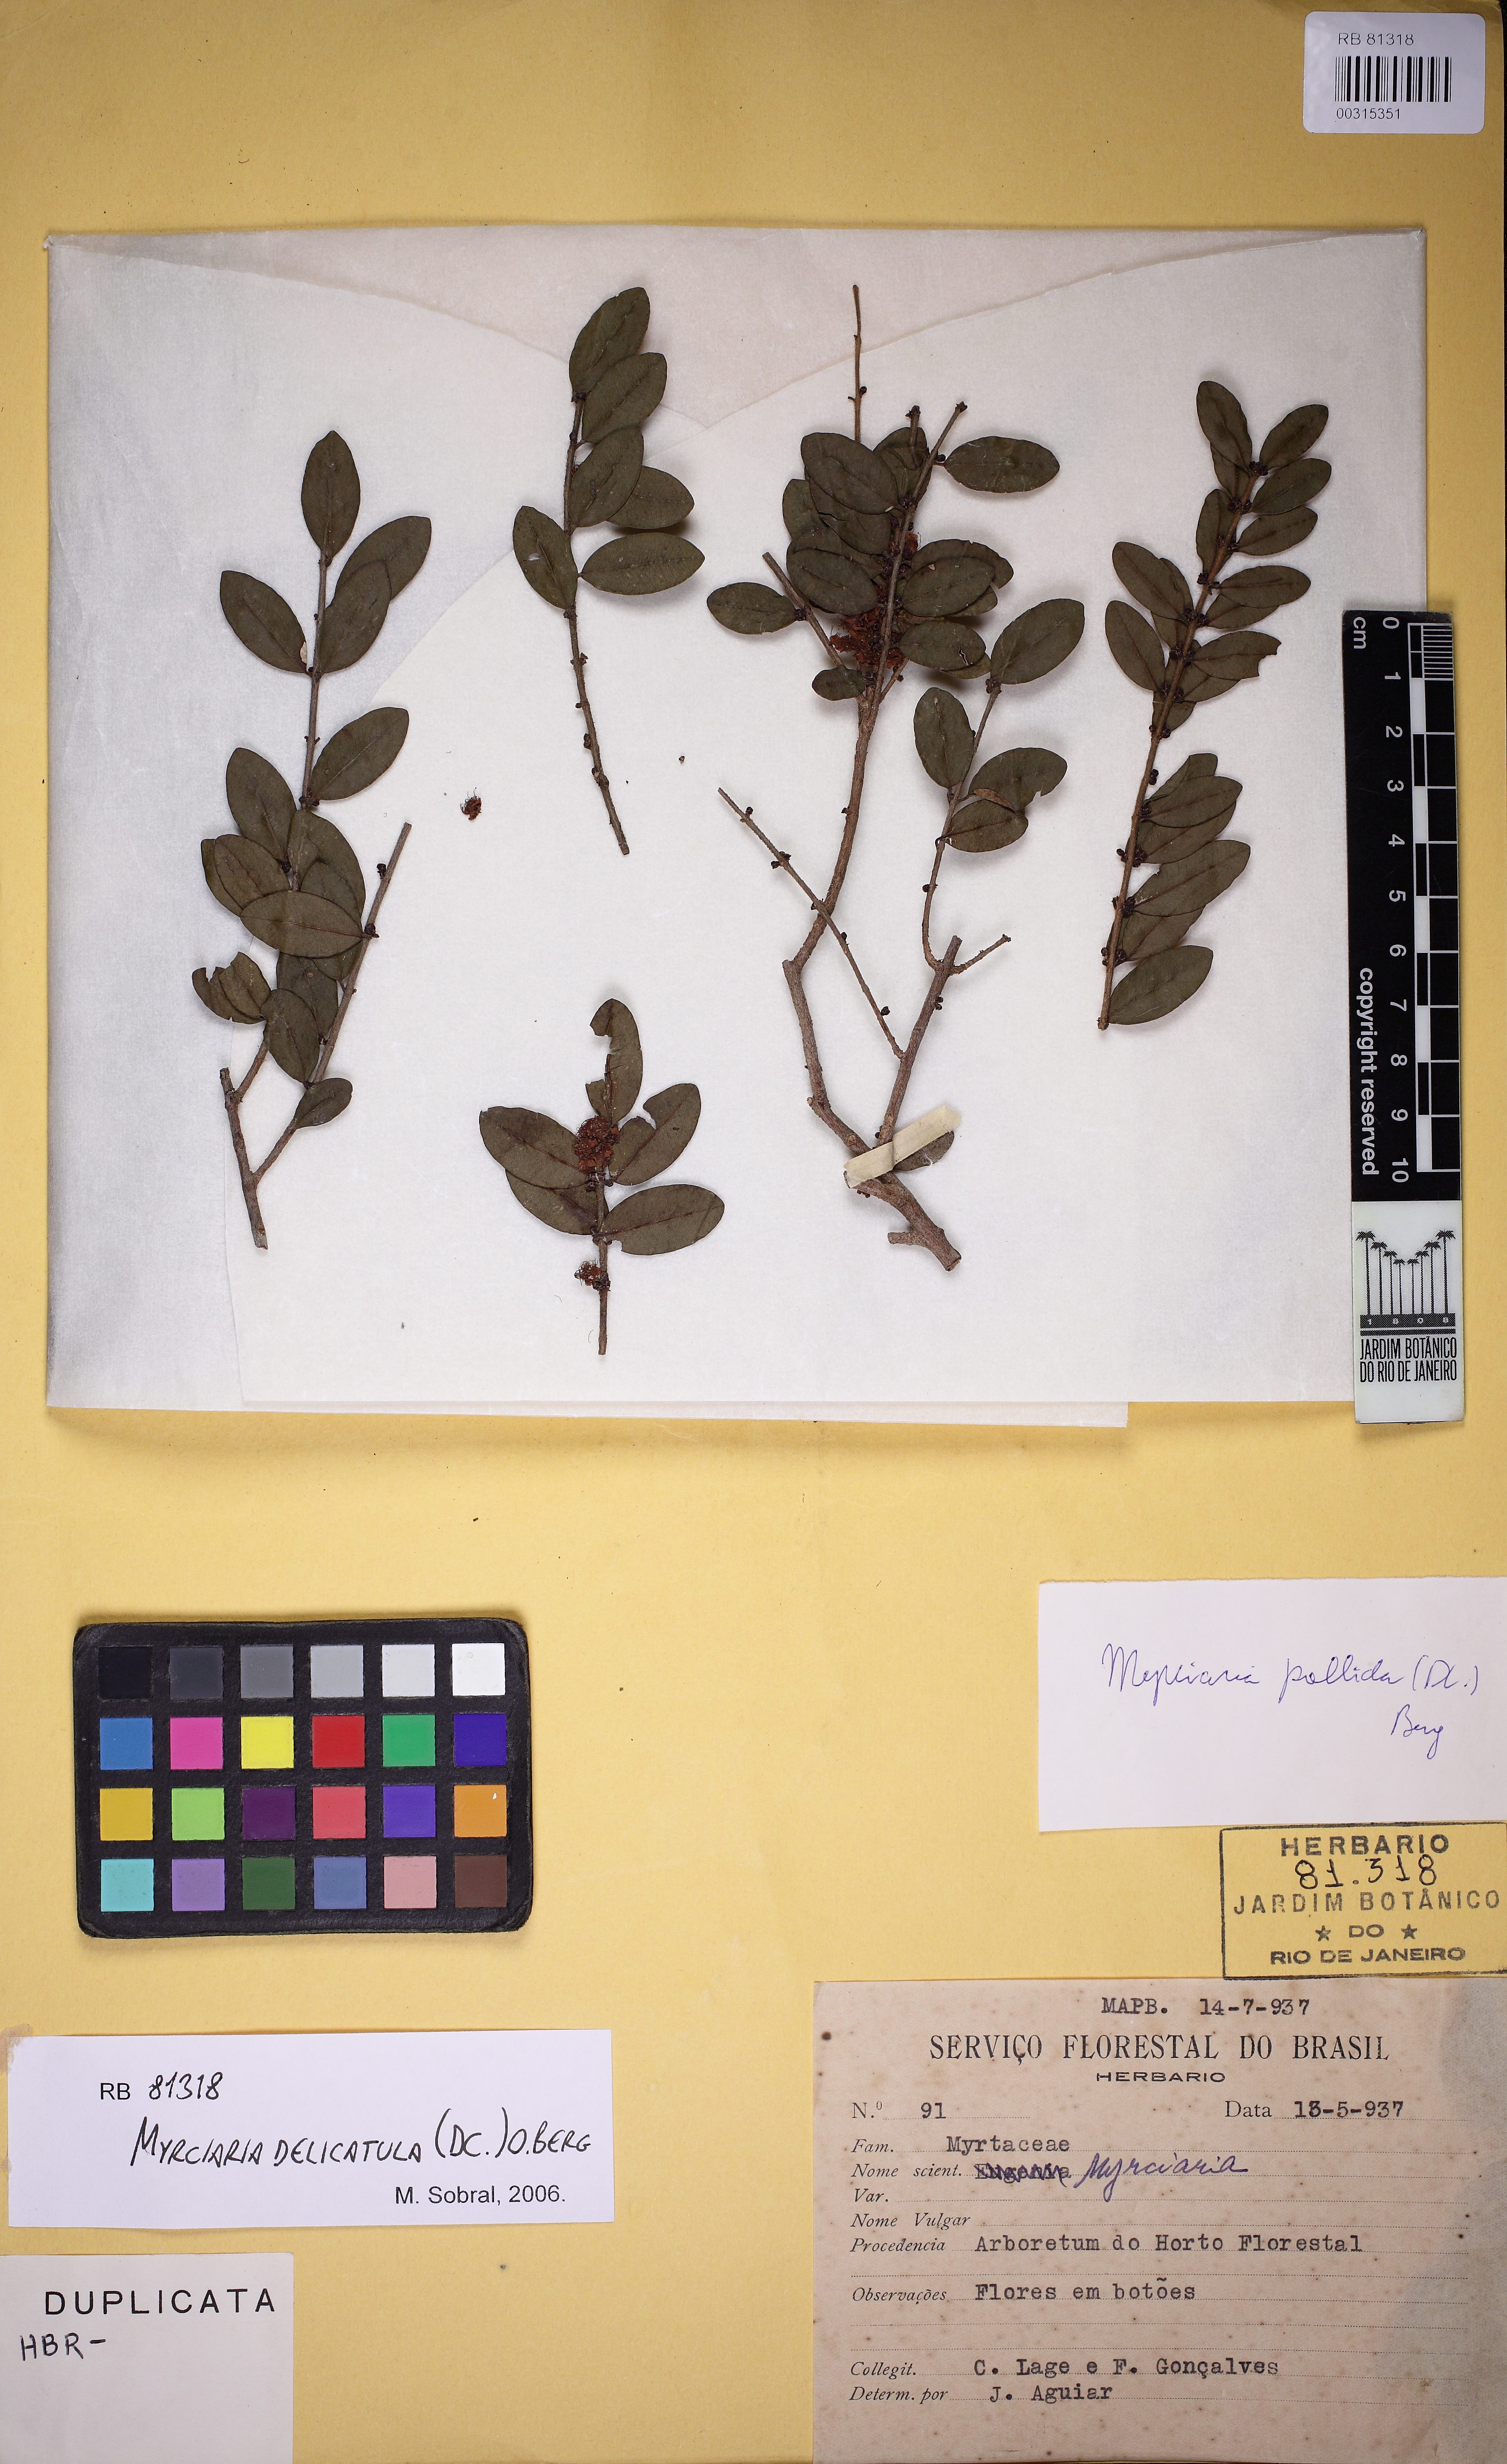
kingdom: Plantae
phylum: Tracheophyta
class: Magnoliopsida
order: Myrtales
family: Myrtaceae
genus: Myrciaria
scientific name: Myrciaria pallida
